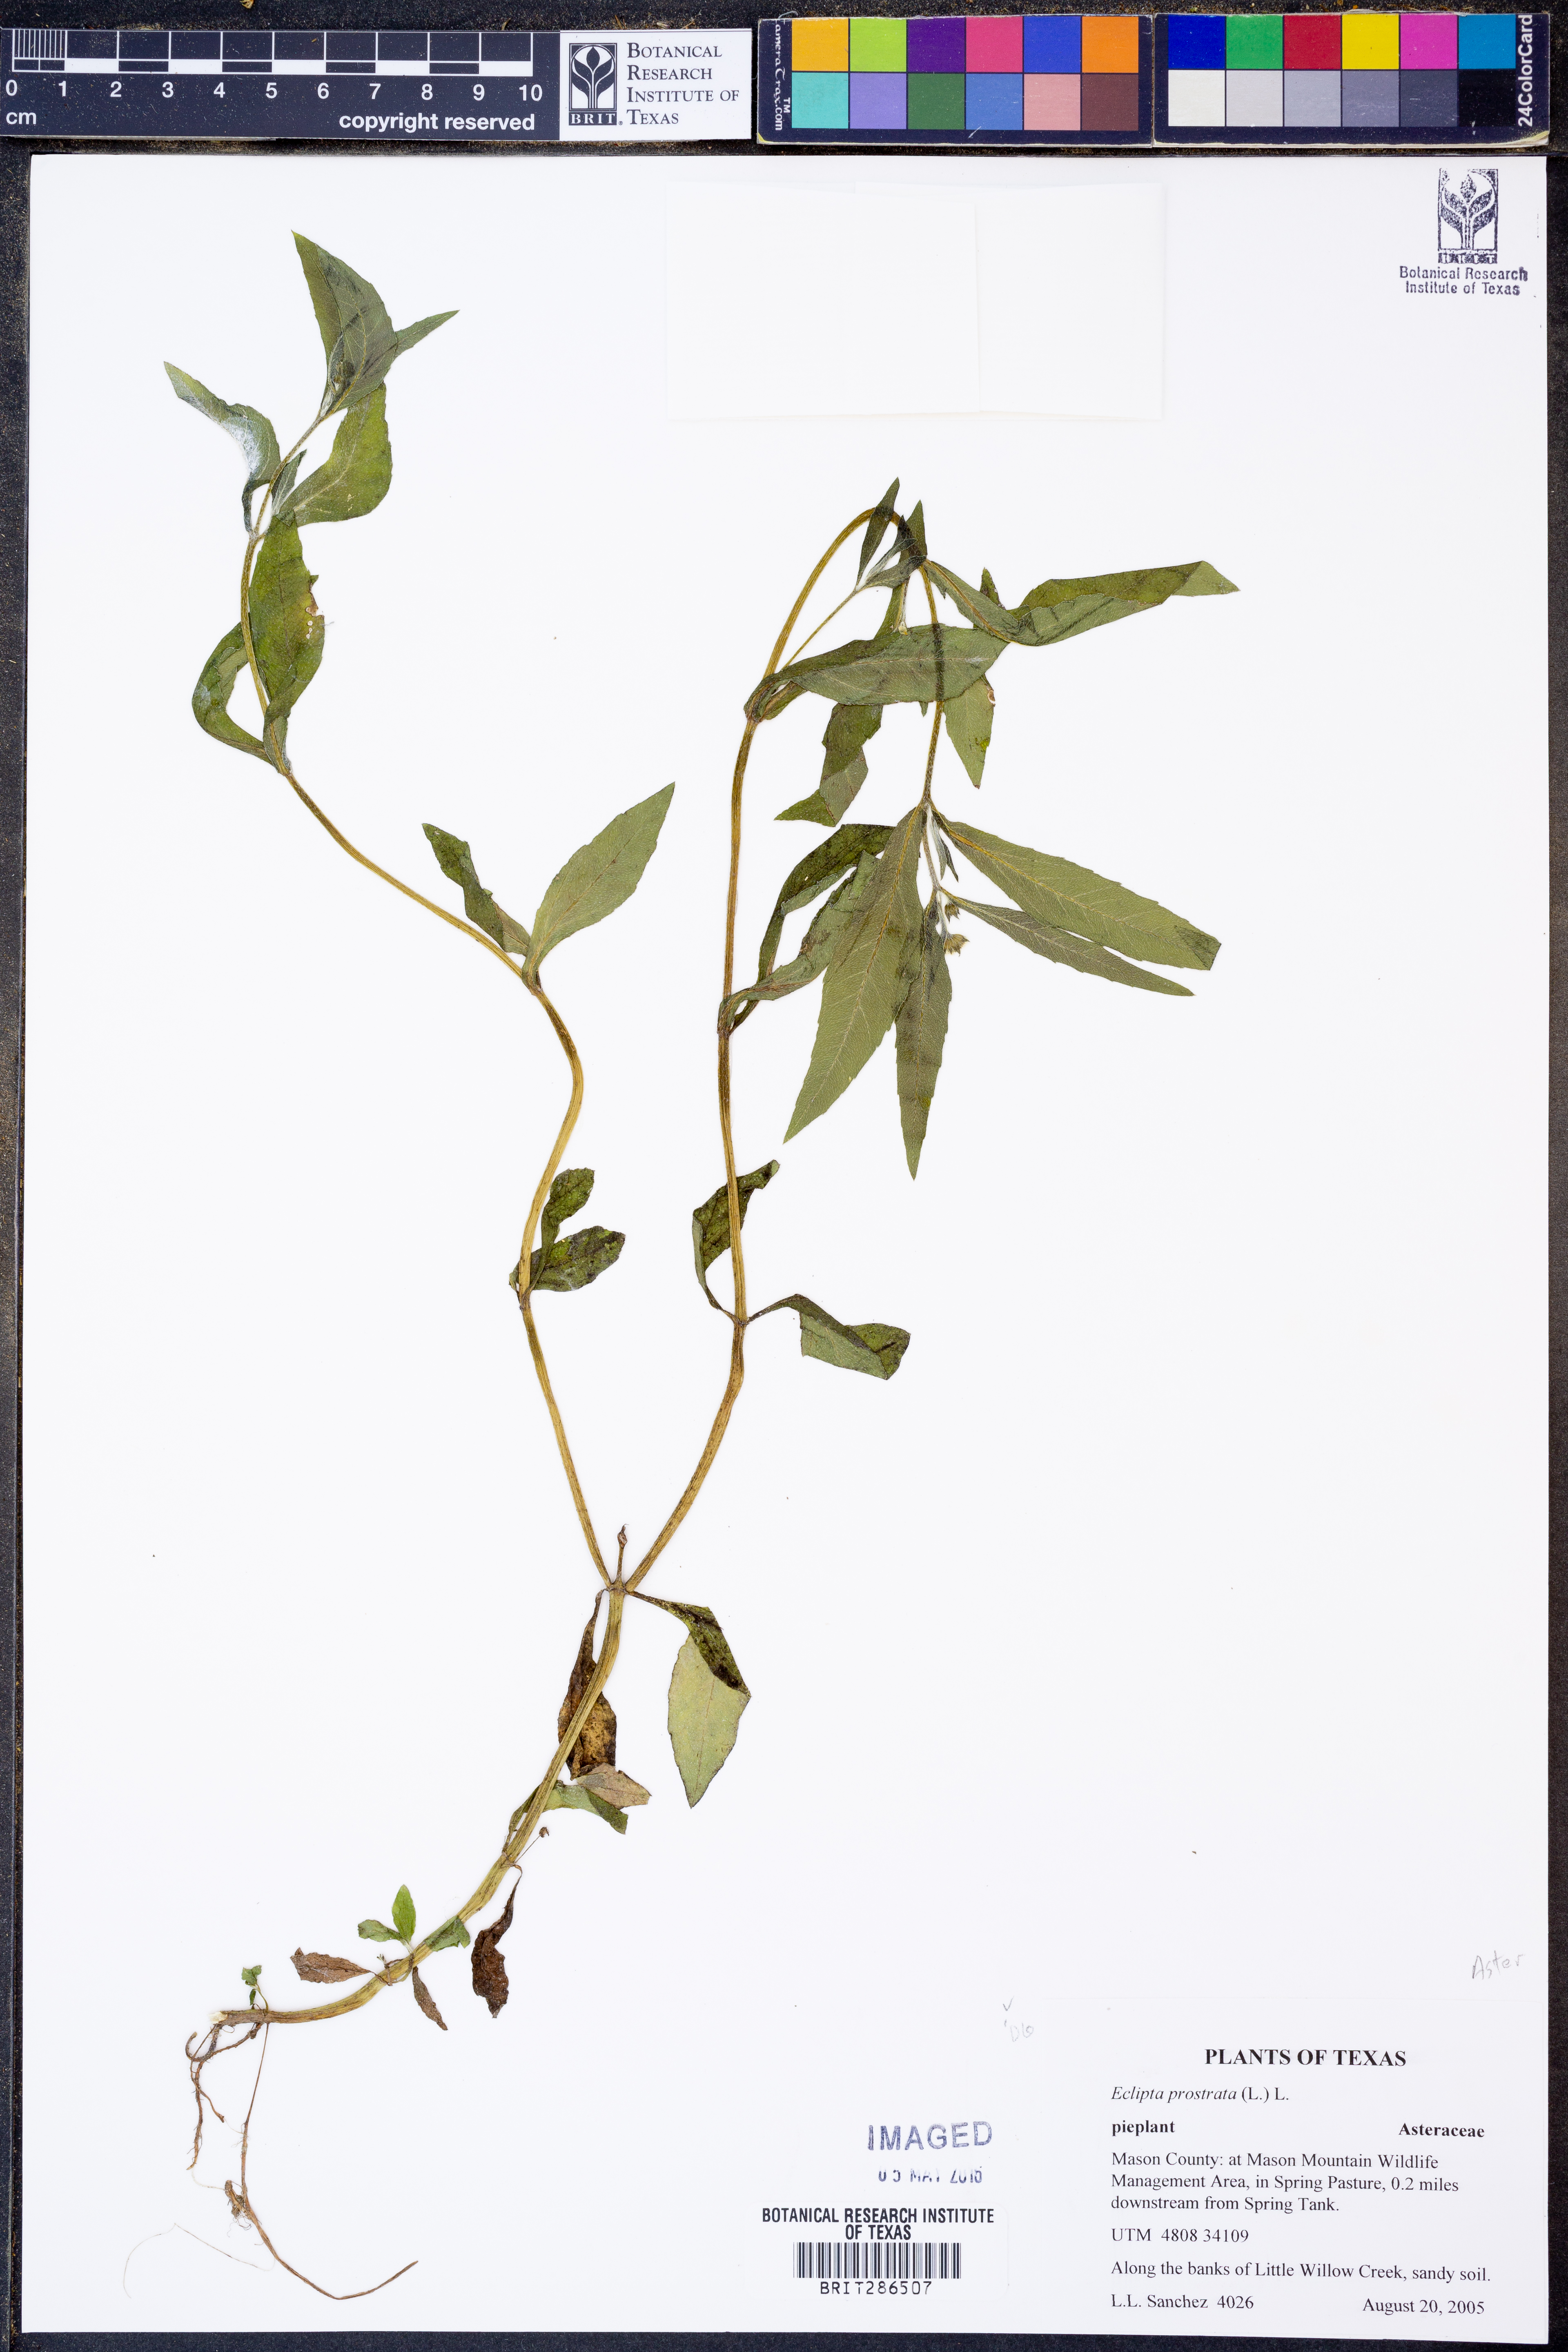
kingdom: Plantae
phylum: Tracheophyta
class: Magnoliopsida
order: Asterales
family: Asteraceae
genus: Eclipta
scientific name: Eclipta prostrata
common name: False daisy
